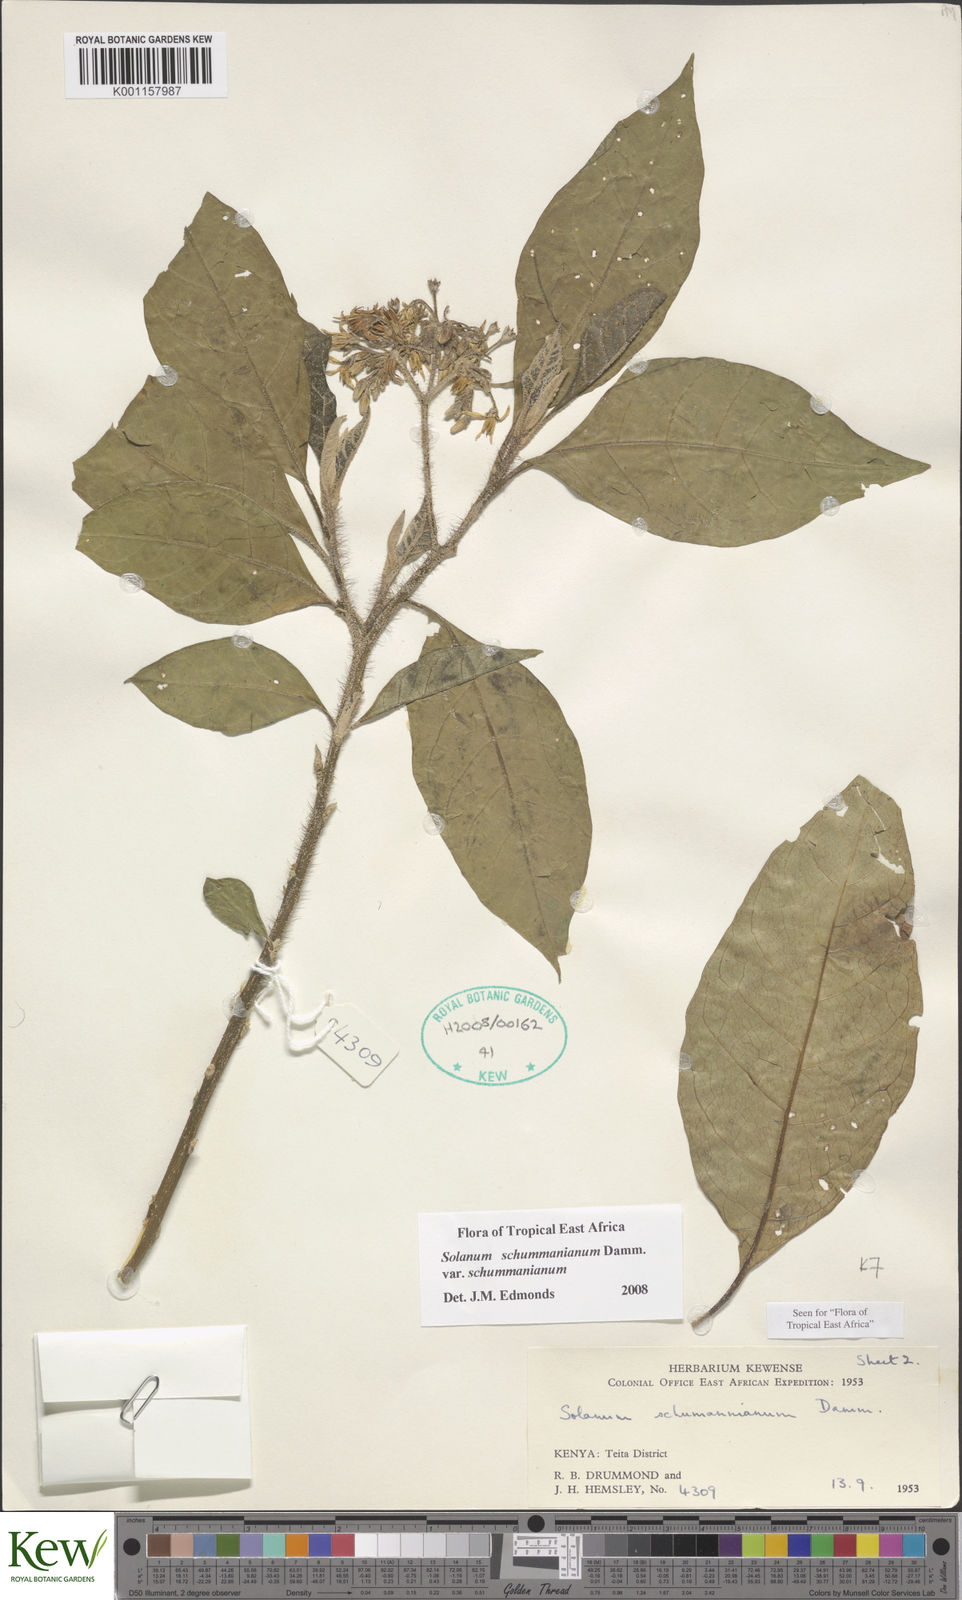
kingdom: Plantae
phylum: Tracheophyta
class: Magnoliopsida
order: Solanales
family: Solanaceae
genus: Solanum
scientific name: Solanum schumannianum
